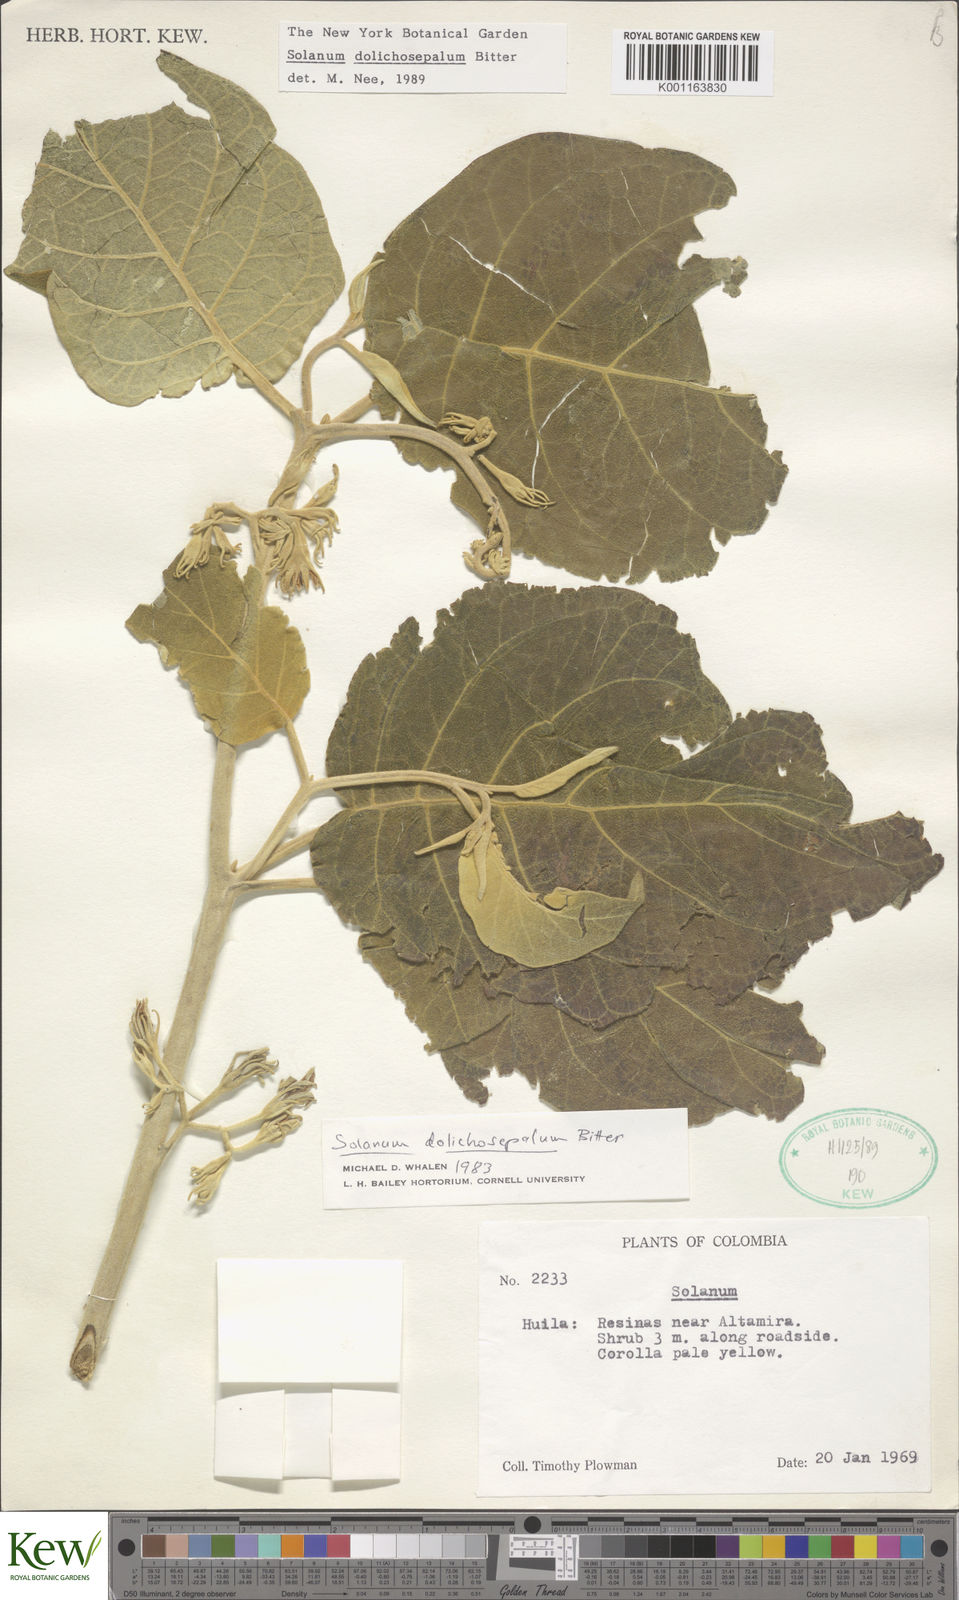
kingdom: Plantae
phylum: Tracheophyta
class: Magnoliopsida
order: Solanales
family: Solanaceae
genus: Solanum
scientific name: Solanum dolichosepalum
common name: Longsepal nightshade
